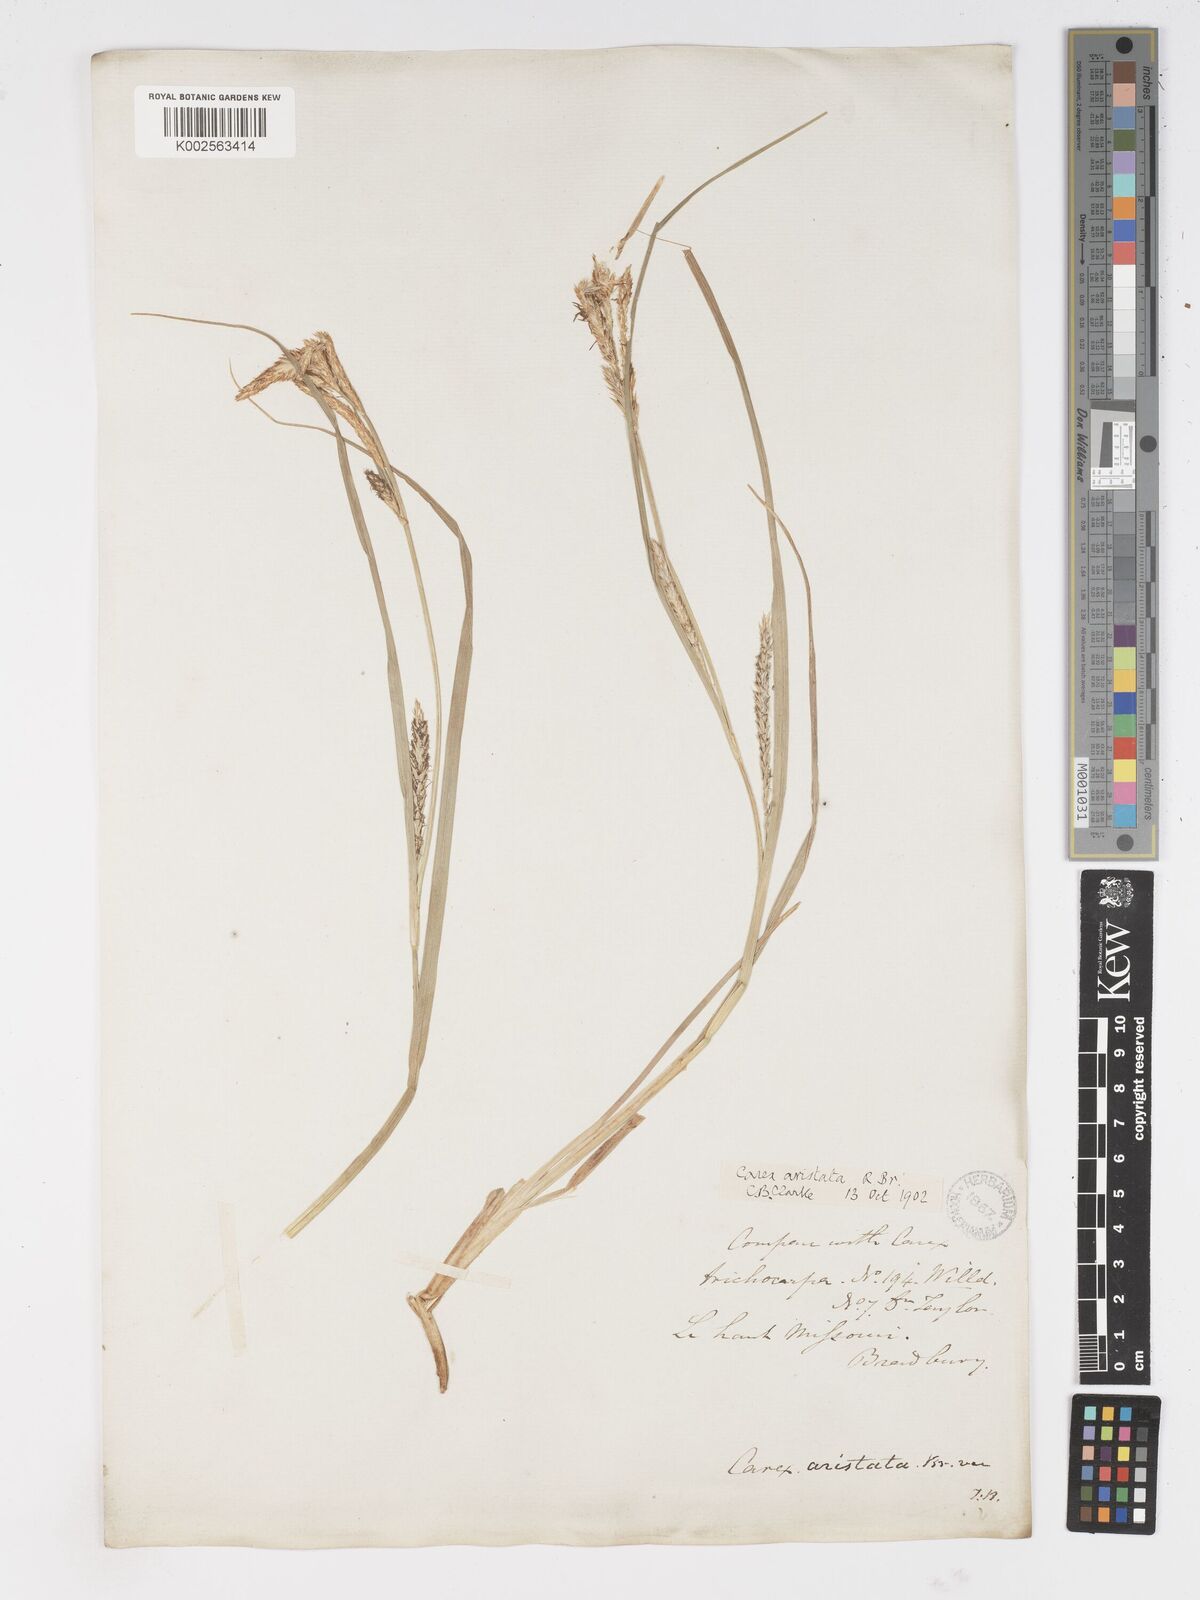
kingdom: Plantae
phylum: Tracheophyta
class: Liliopsida
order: Poales
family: Cyperaceae
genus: Carex
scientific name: Carex atherodes
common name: Wheat sedge
